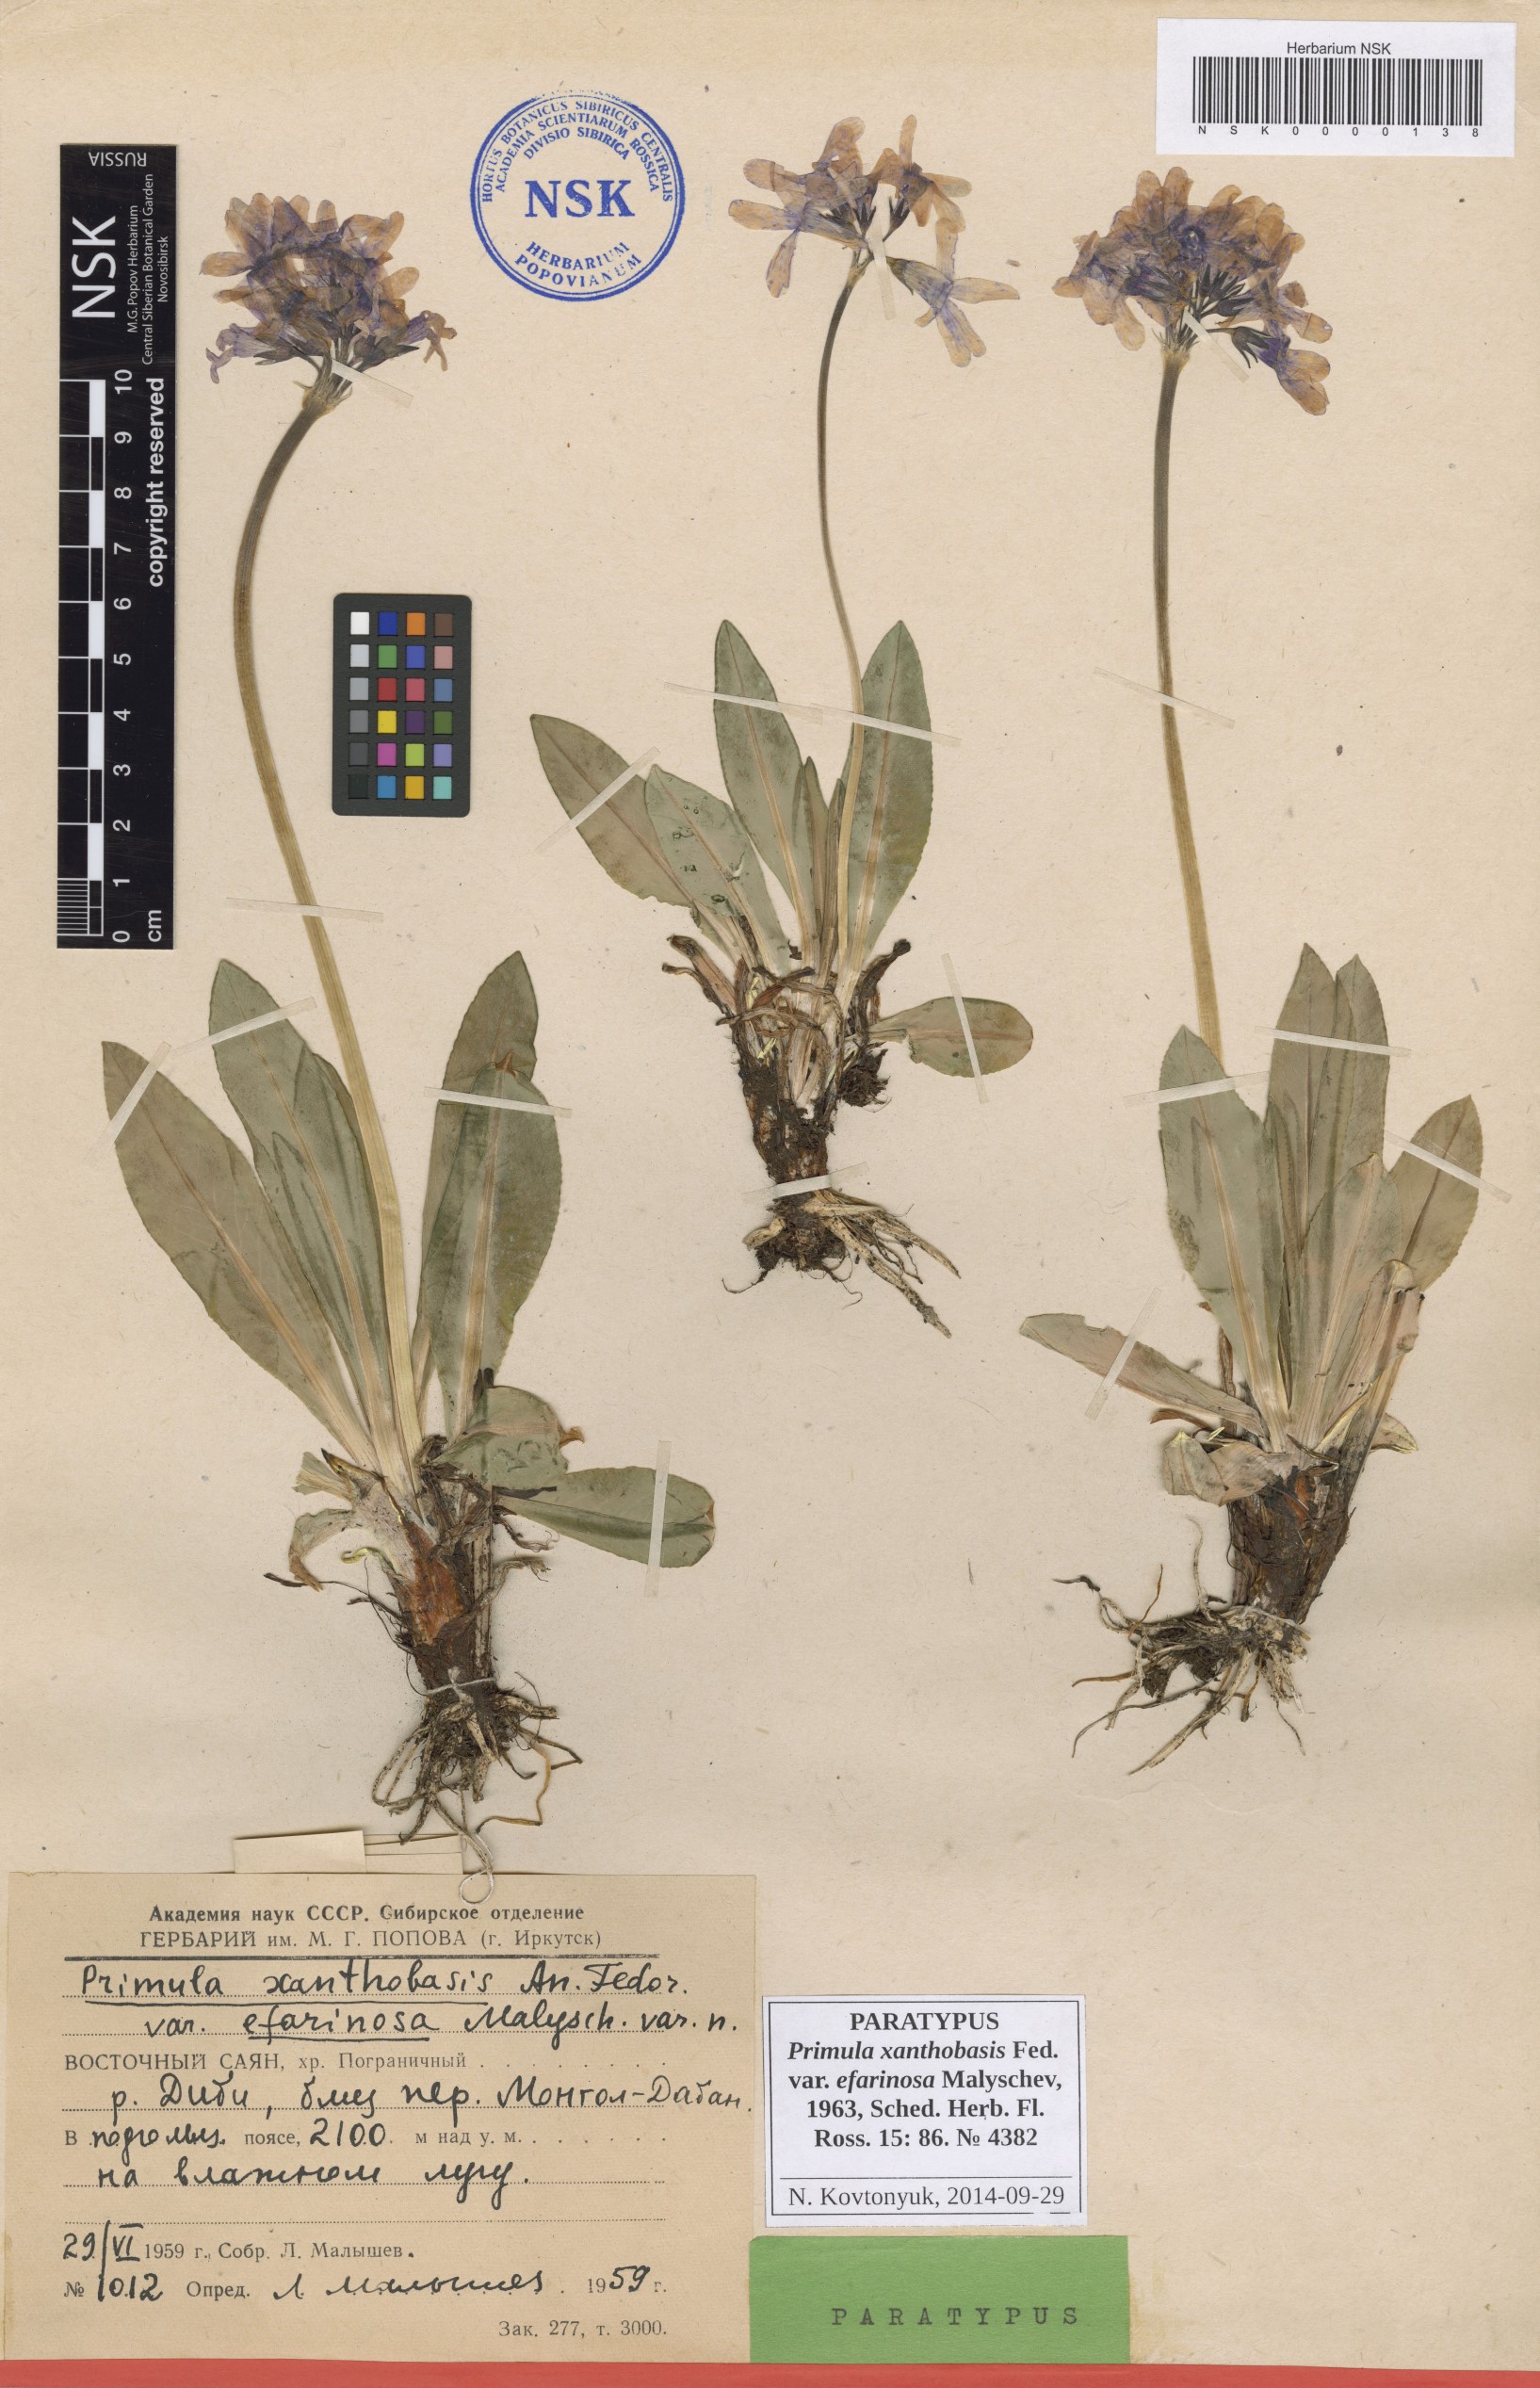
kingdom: Plantae
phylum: Tracheophyta
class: Magnoliopsida
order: Ericales
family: Primulaceae
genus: Primula
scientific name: Primula nivalis
